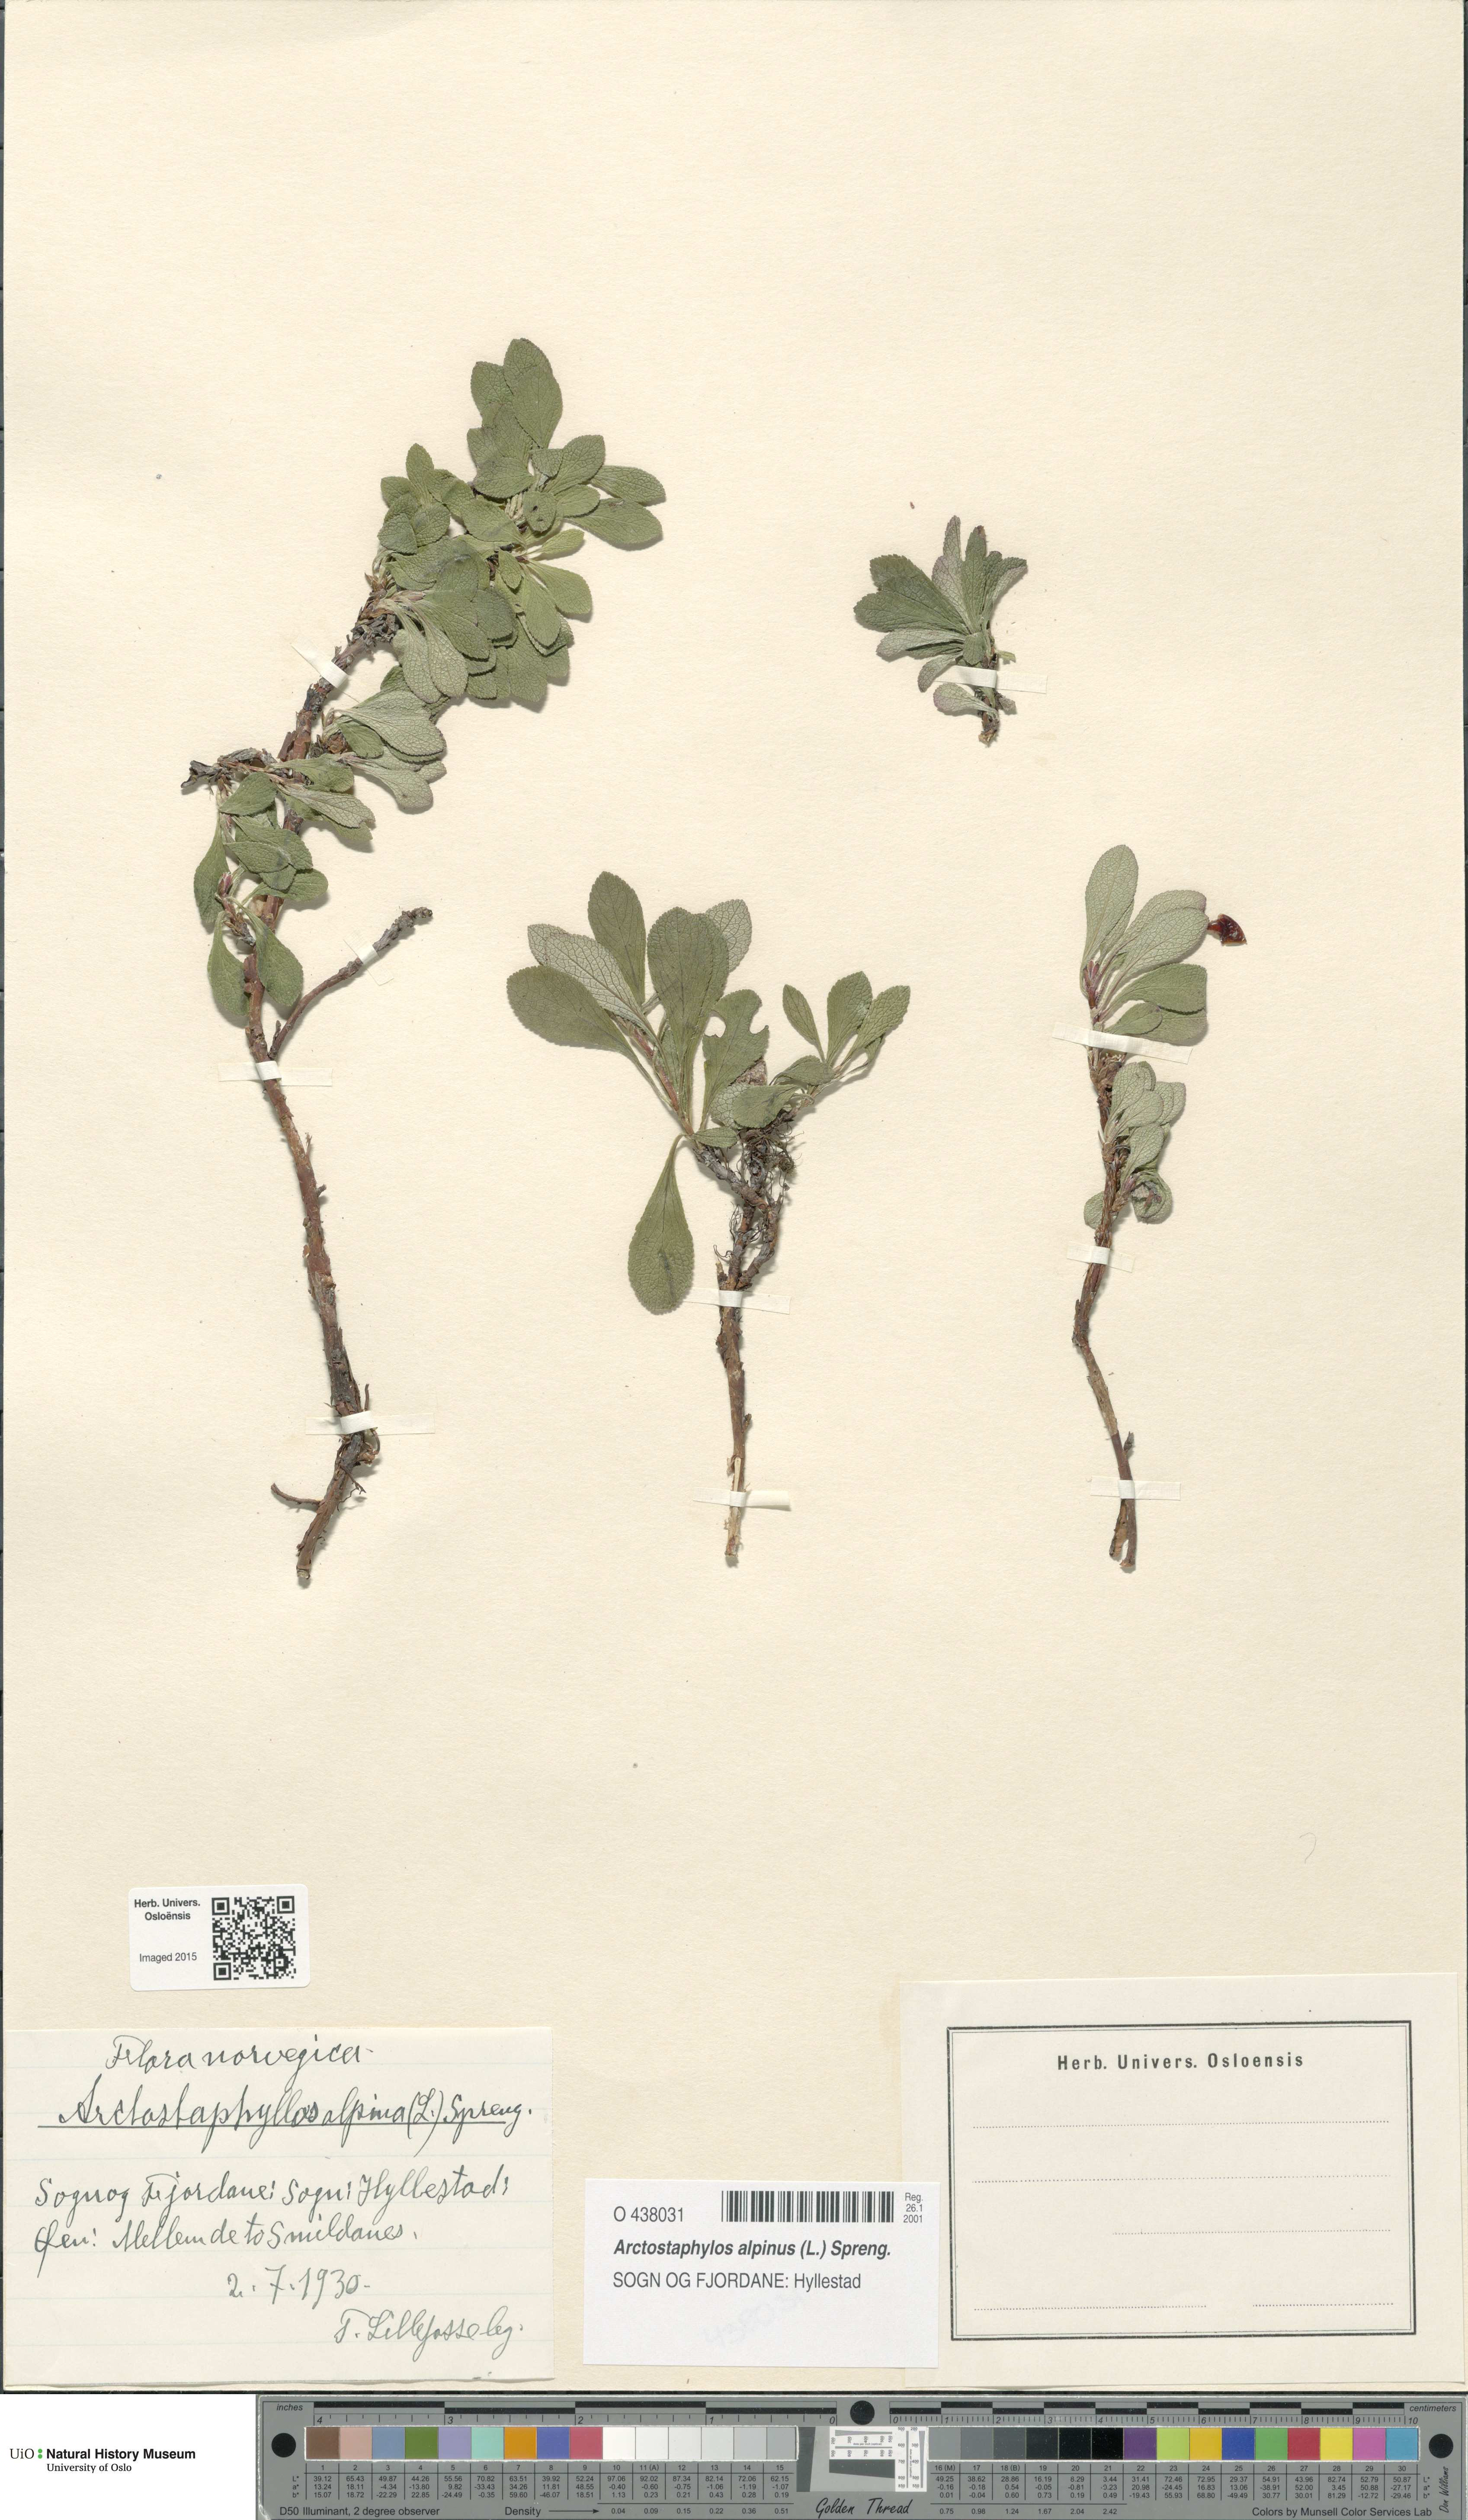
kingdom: Plantae
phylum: Tracheophyta
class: Magnoliopsida
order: Ericales
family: Ericaceae
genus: Arctostaphylos
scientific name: Arctostaphylos alpinus
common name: Alpine bearberry
